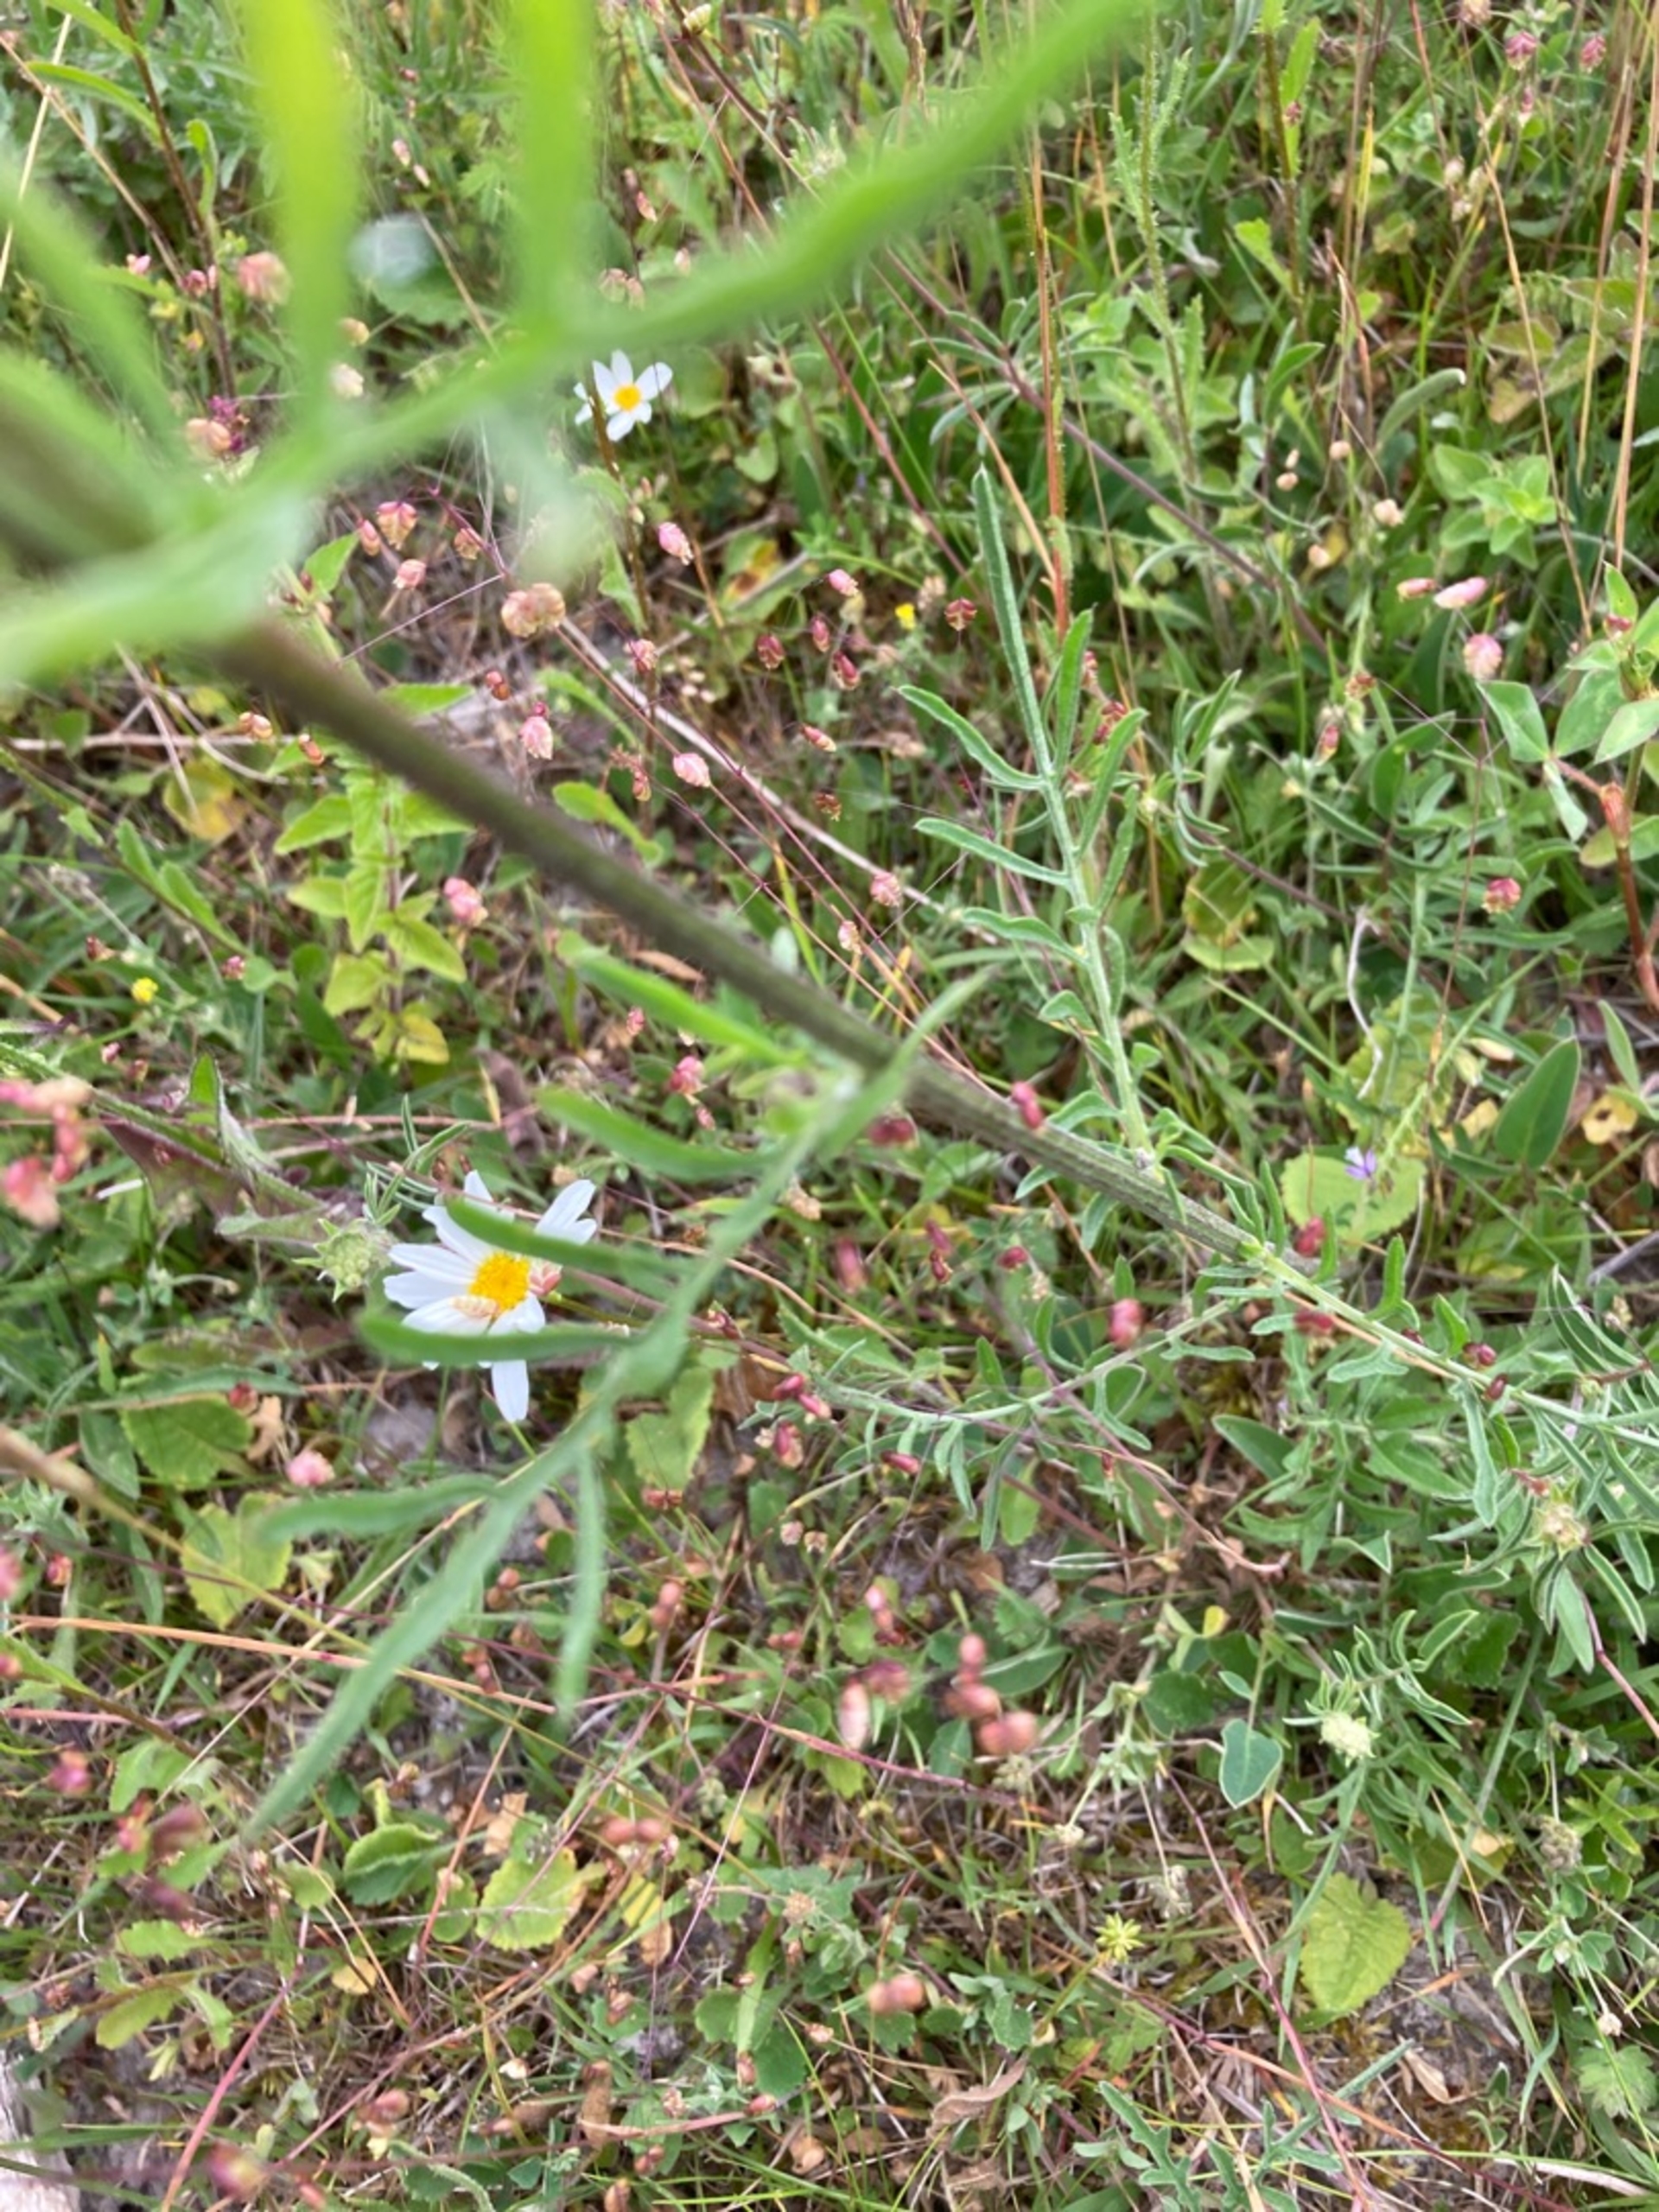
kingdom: Plantae
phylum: Tracheophyta
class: Magnoliopsida
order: Asterales
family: Asteraceae
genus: Centaurea
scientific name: Centaurea scabiosa
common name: Stor knopurt
